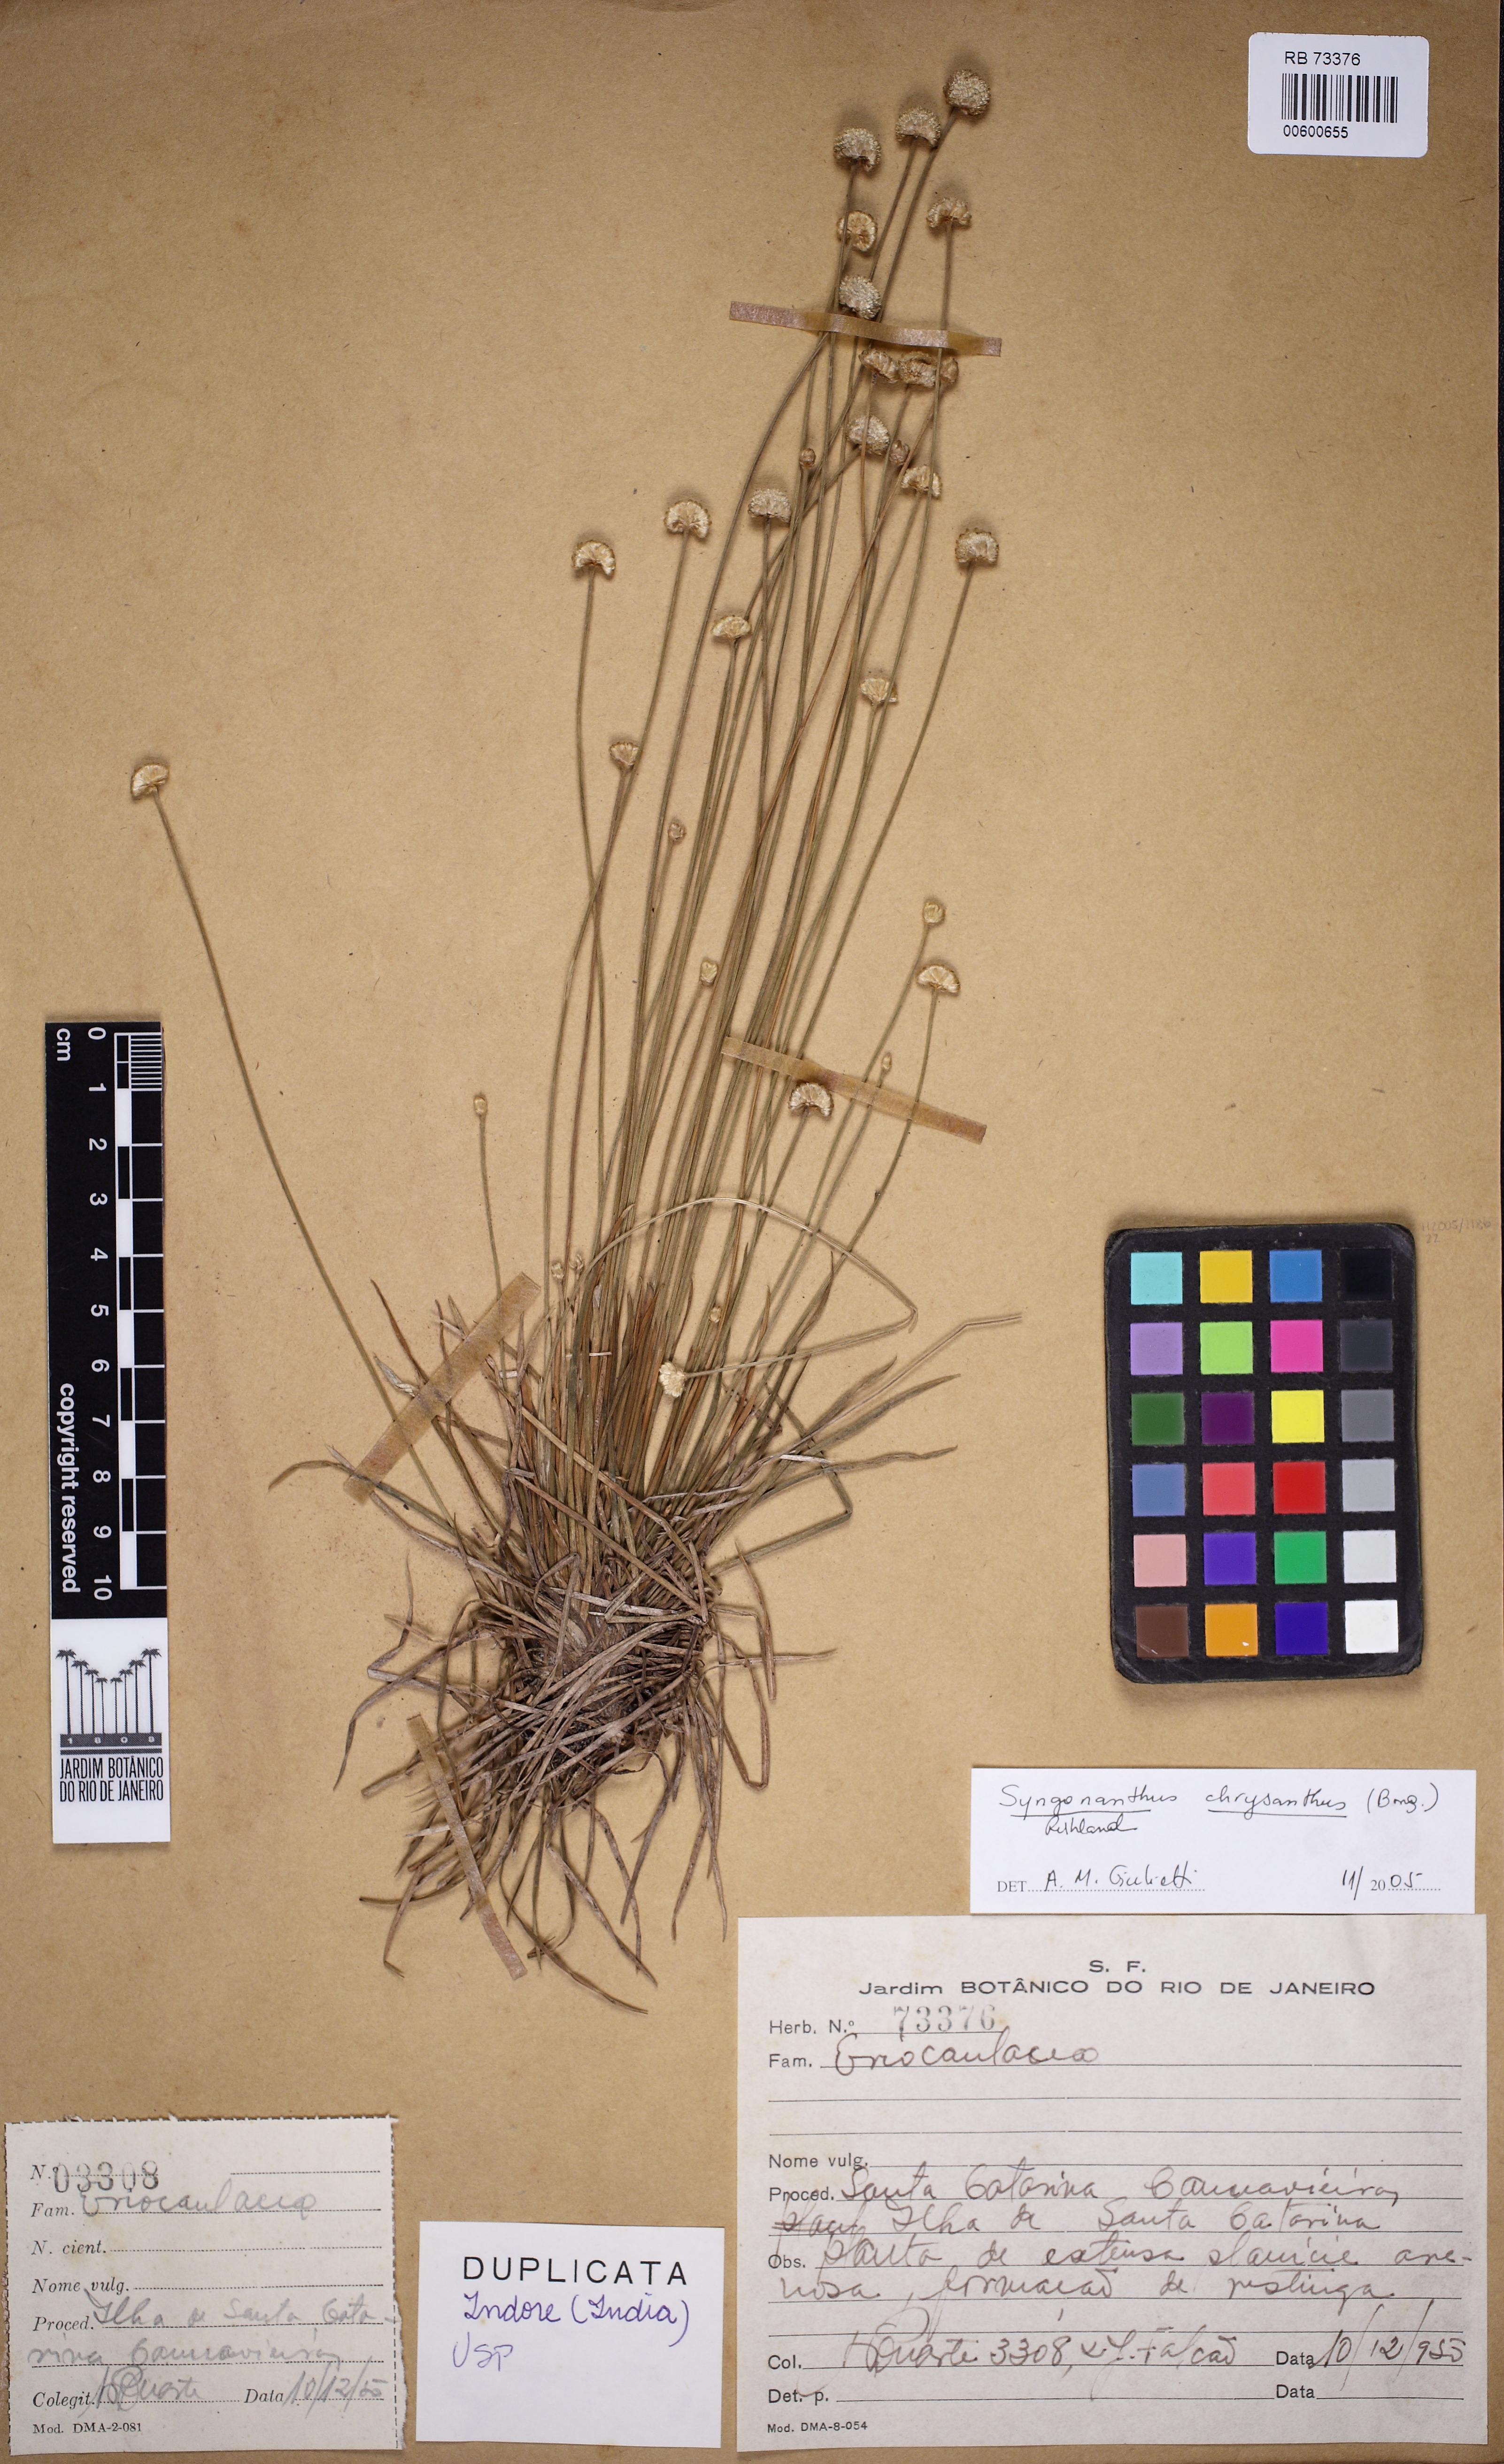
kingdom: Plantae
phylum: Tracheophyta
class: Liliopsida
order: Poales
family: Eriocaulaceae
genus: Syngonanthus
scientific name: Syngonanthus chrysanthus
